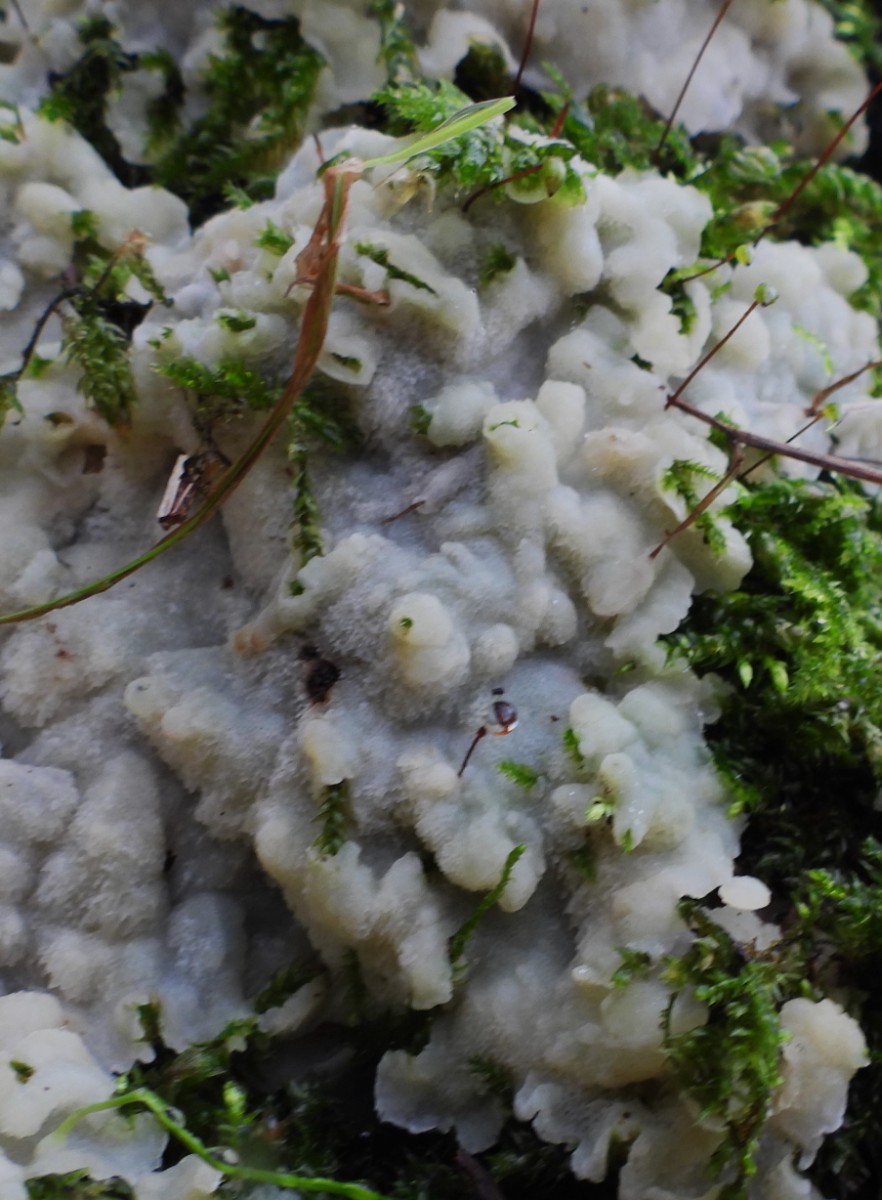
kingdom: Fungi
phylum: Basidiomycota
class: Agaricomycetes
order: Polyporales
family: Meruliaceae
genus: Physisporinus
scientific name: Physisporinus vitreus
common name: mastesvamp
